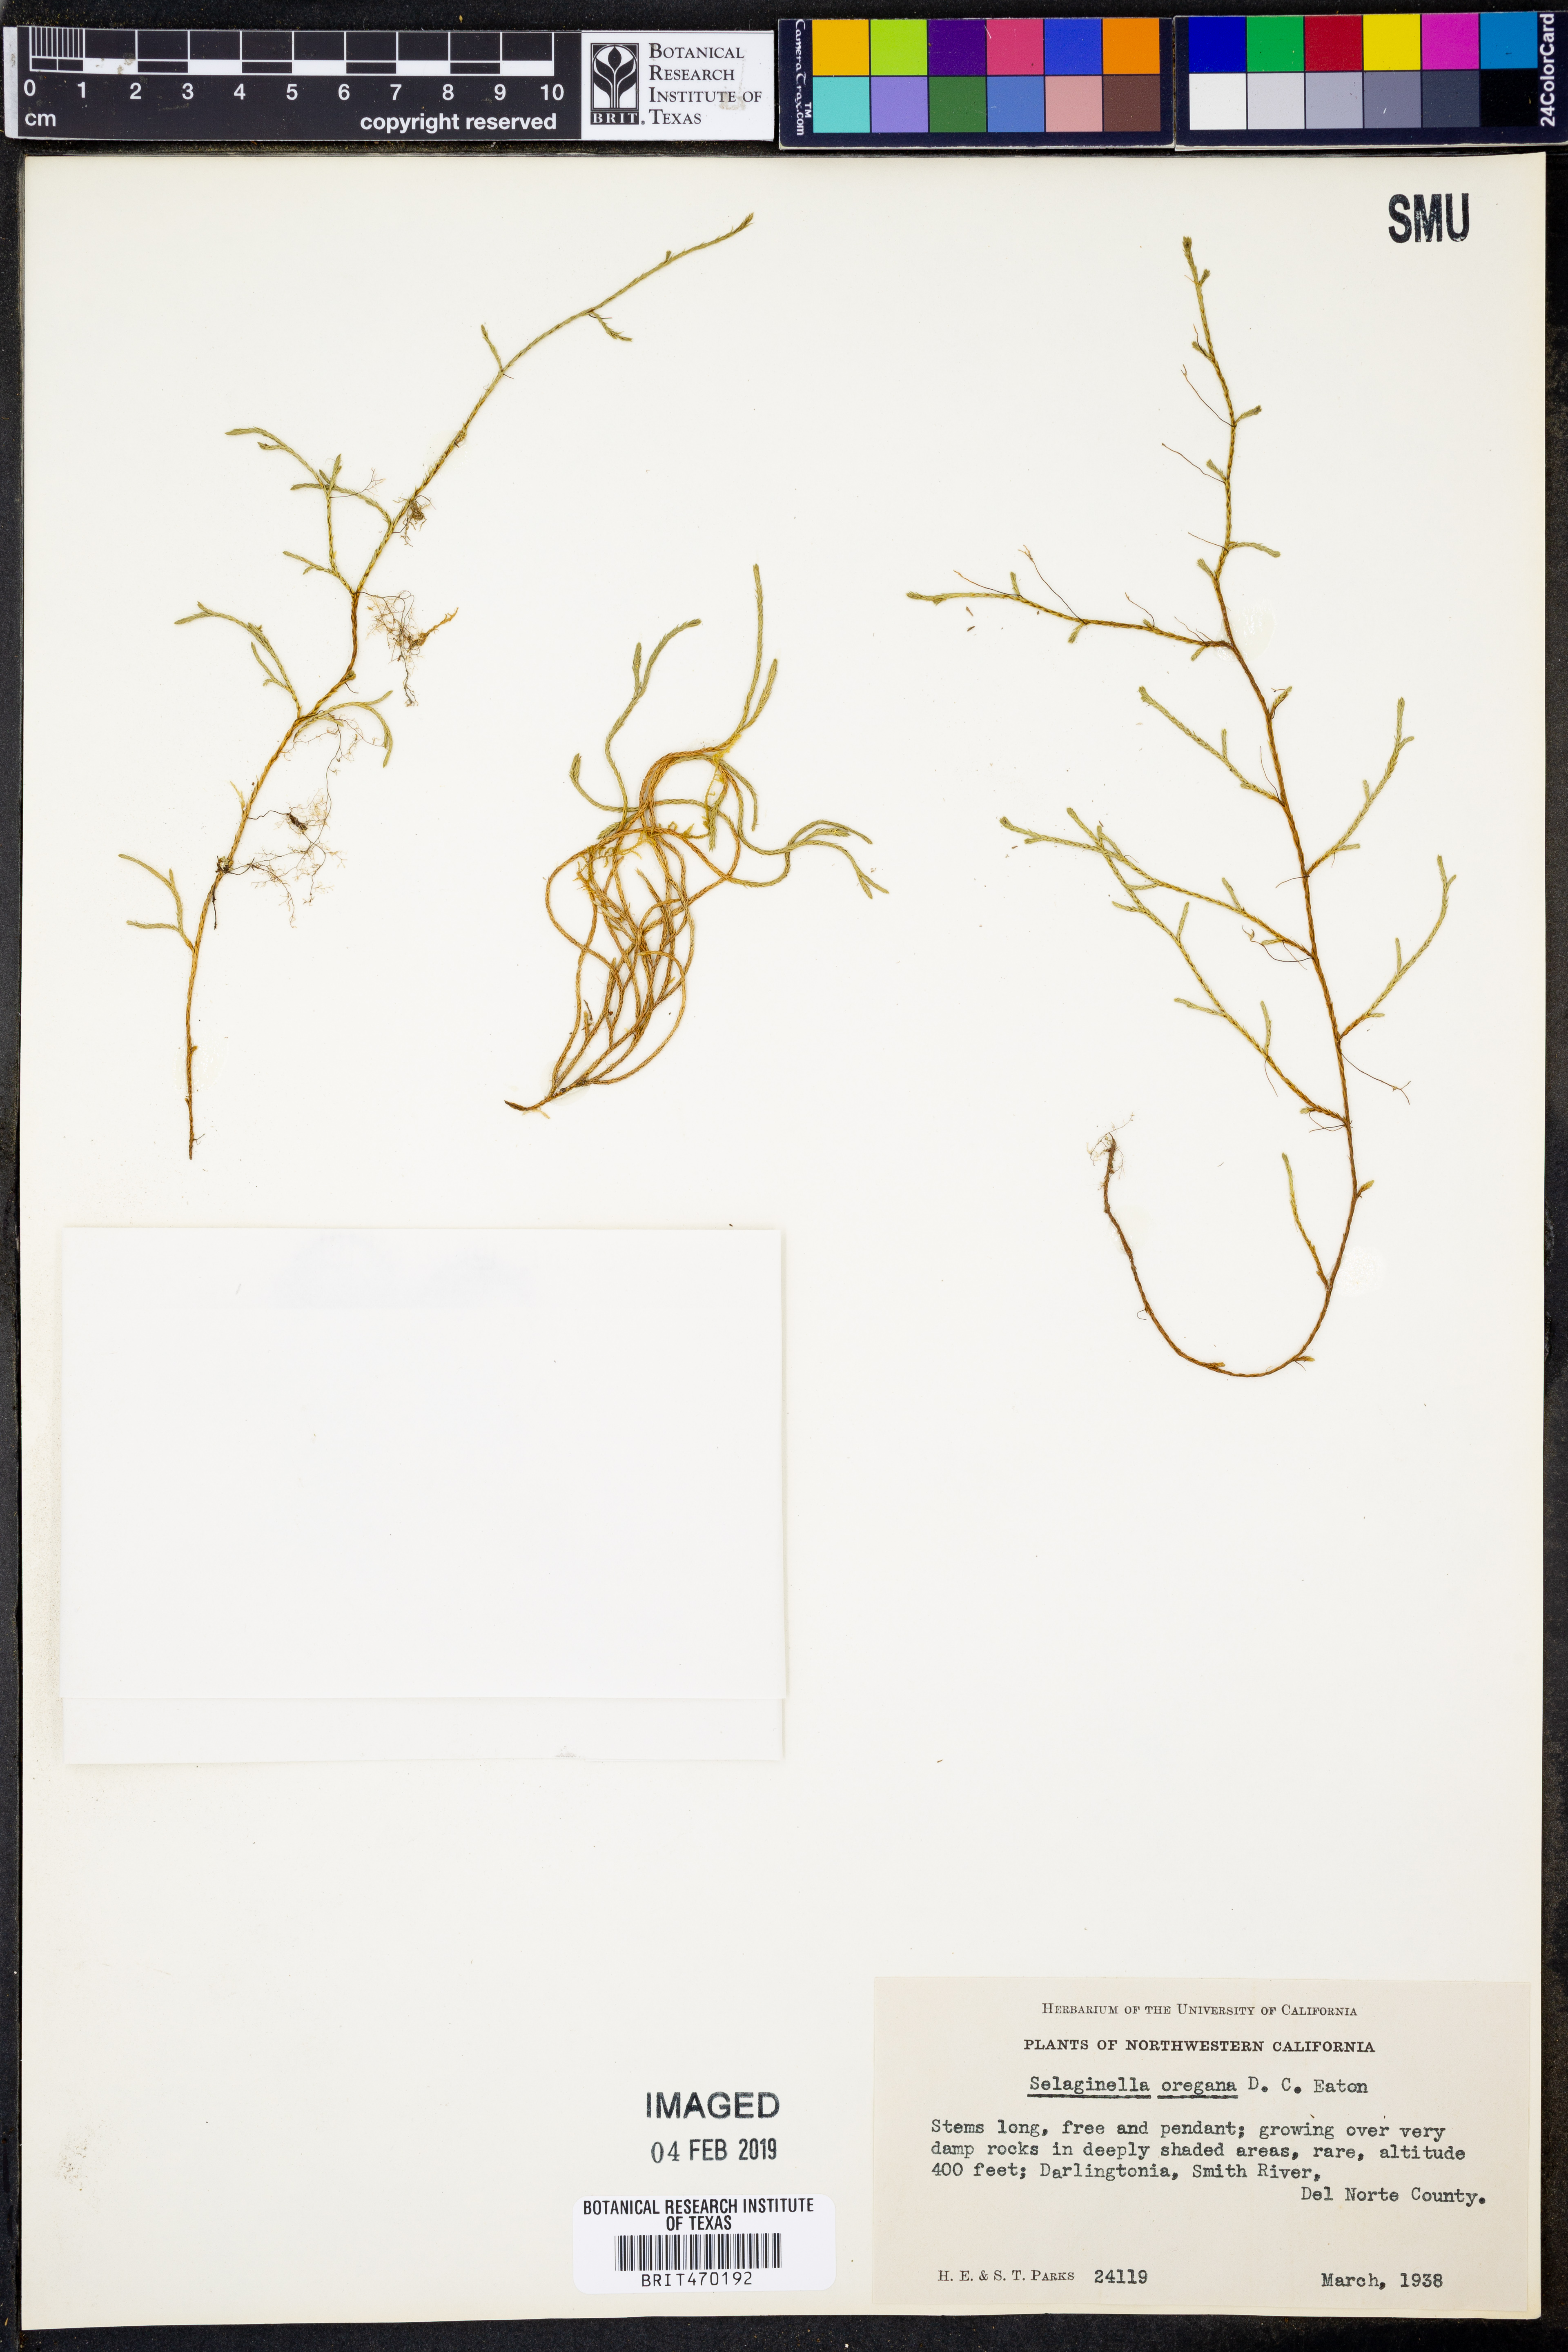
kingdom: Plantae
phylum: Tracheophyta
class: Lycopodiopsida
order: Selaginellales
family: Selaginellaceae
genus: Selaginella
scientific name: Selaginella oregana
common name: Oregon selaginella
